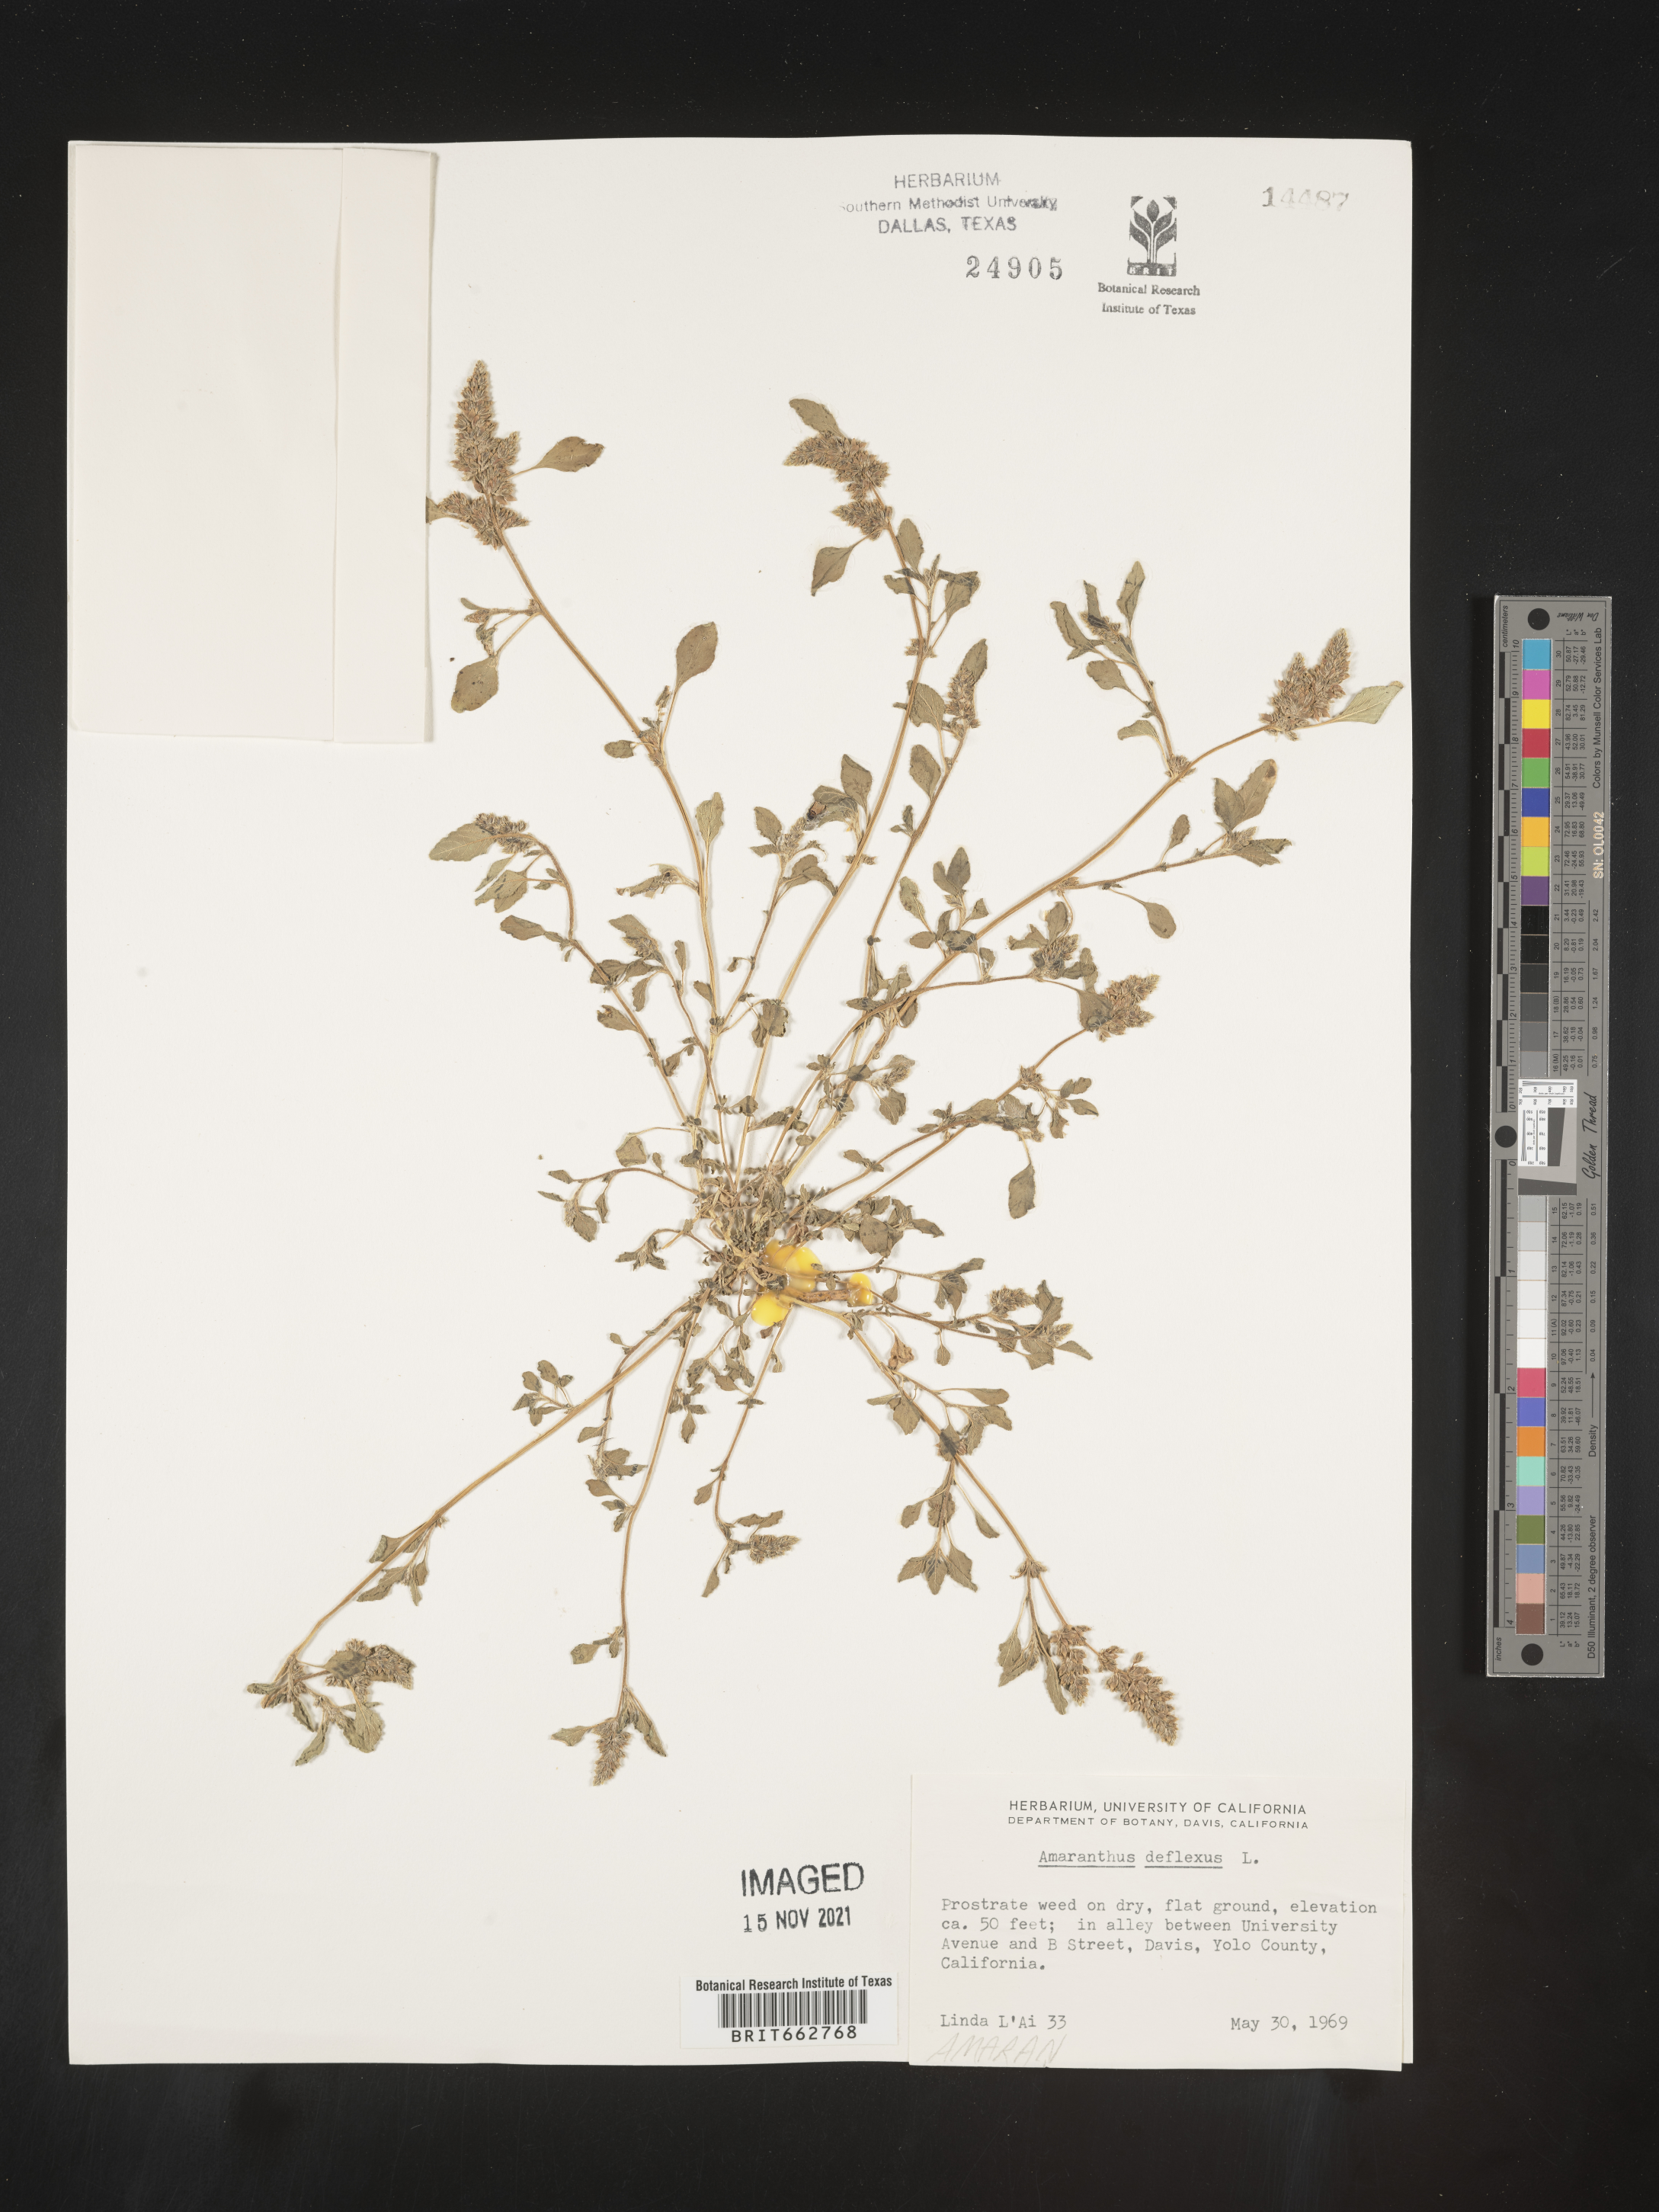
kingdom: Plantae
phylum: Tracheophyta
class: Magnoliopsida
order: Caryophyllales
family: Amaranthaceae
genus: Amaranthus
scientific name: Amaranthus
